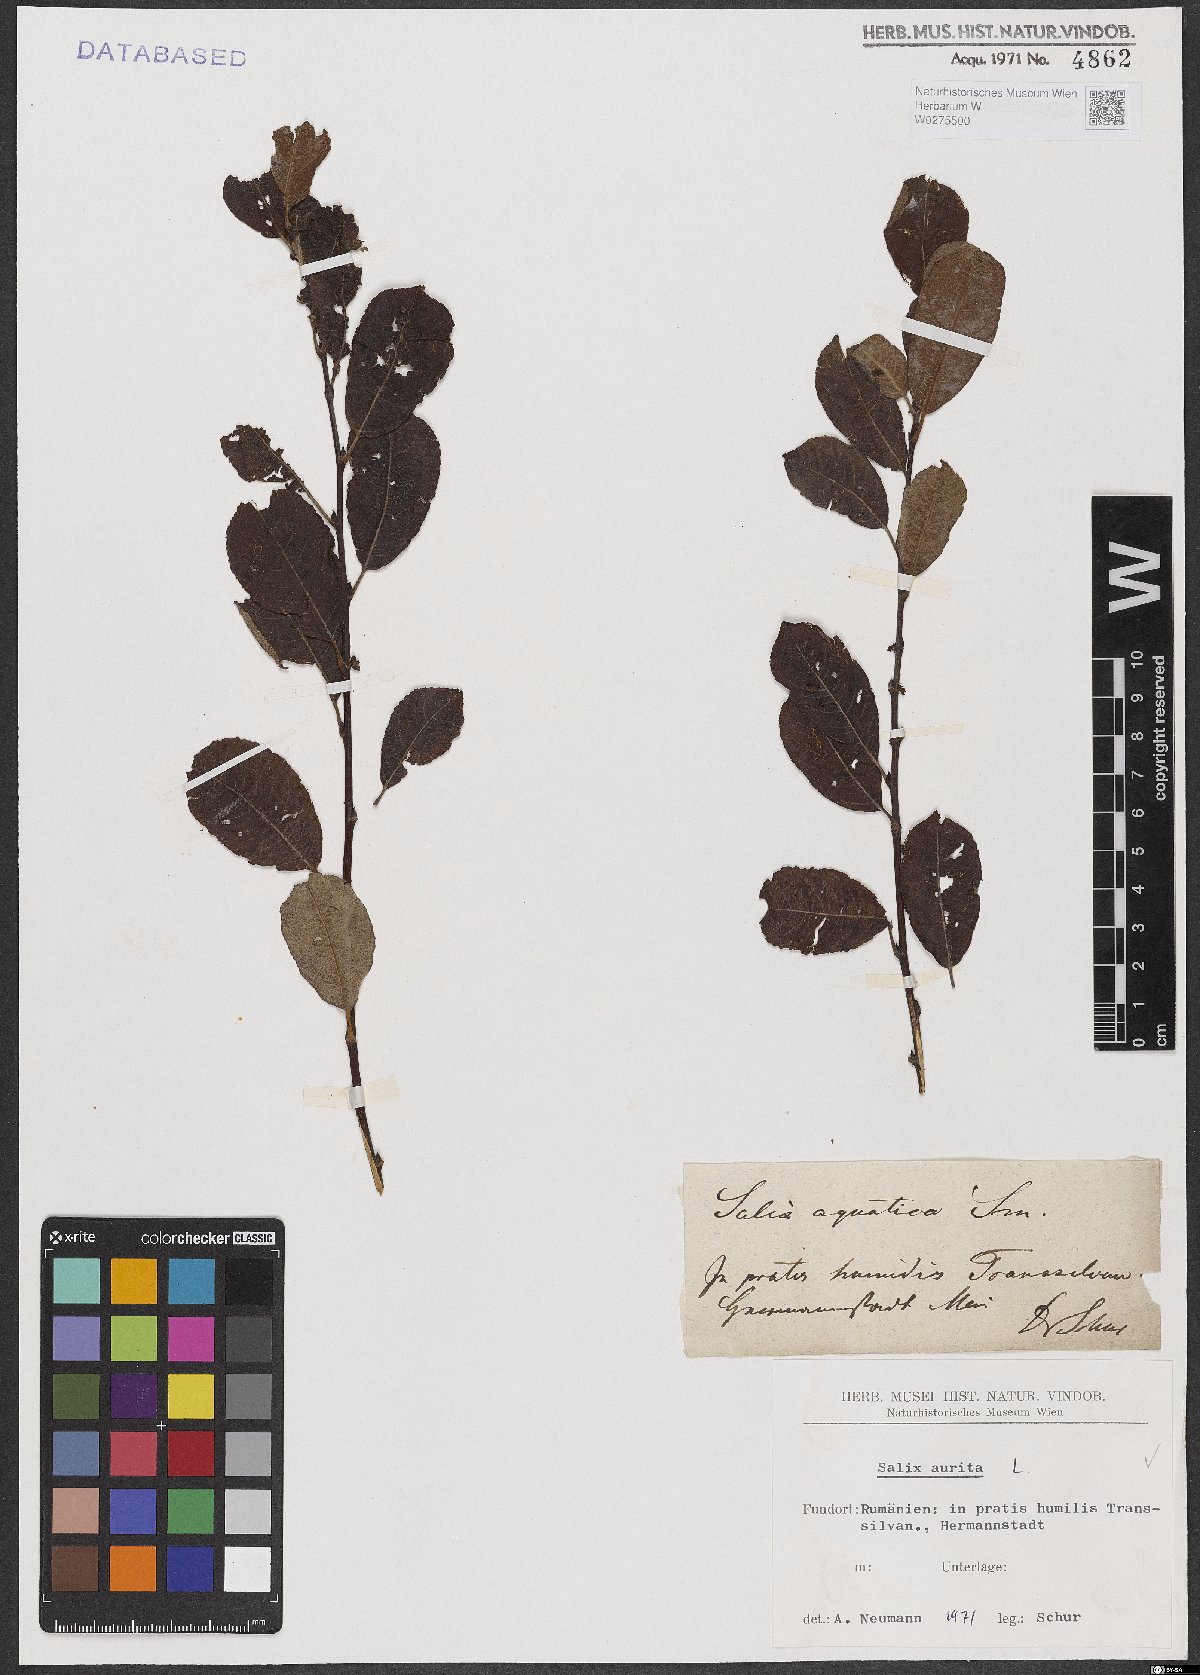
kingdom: Plantae
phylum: Tracheophyta
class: Magnoliopsida
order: Malpighiales
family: Salicaceae
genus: Salix
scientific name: Salix aurita
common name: Eared willow
